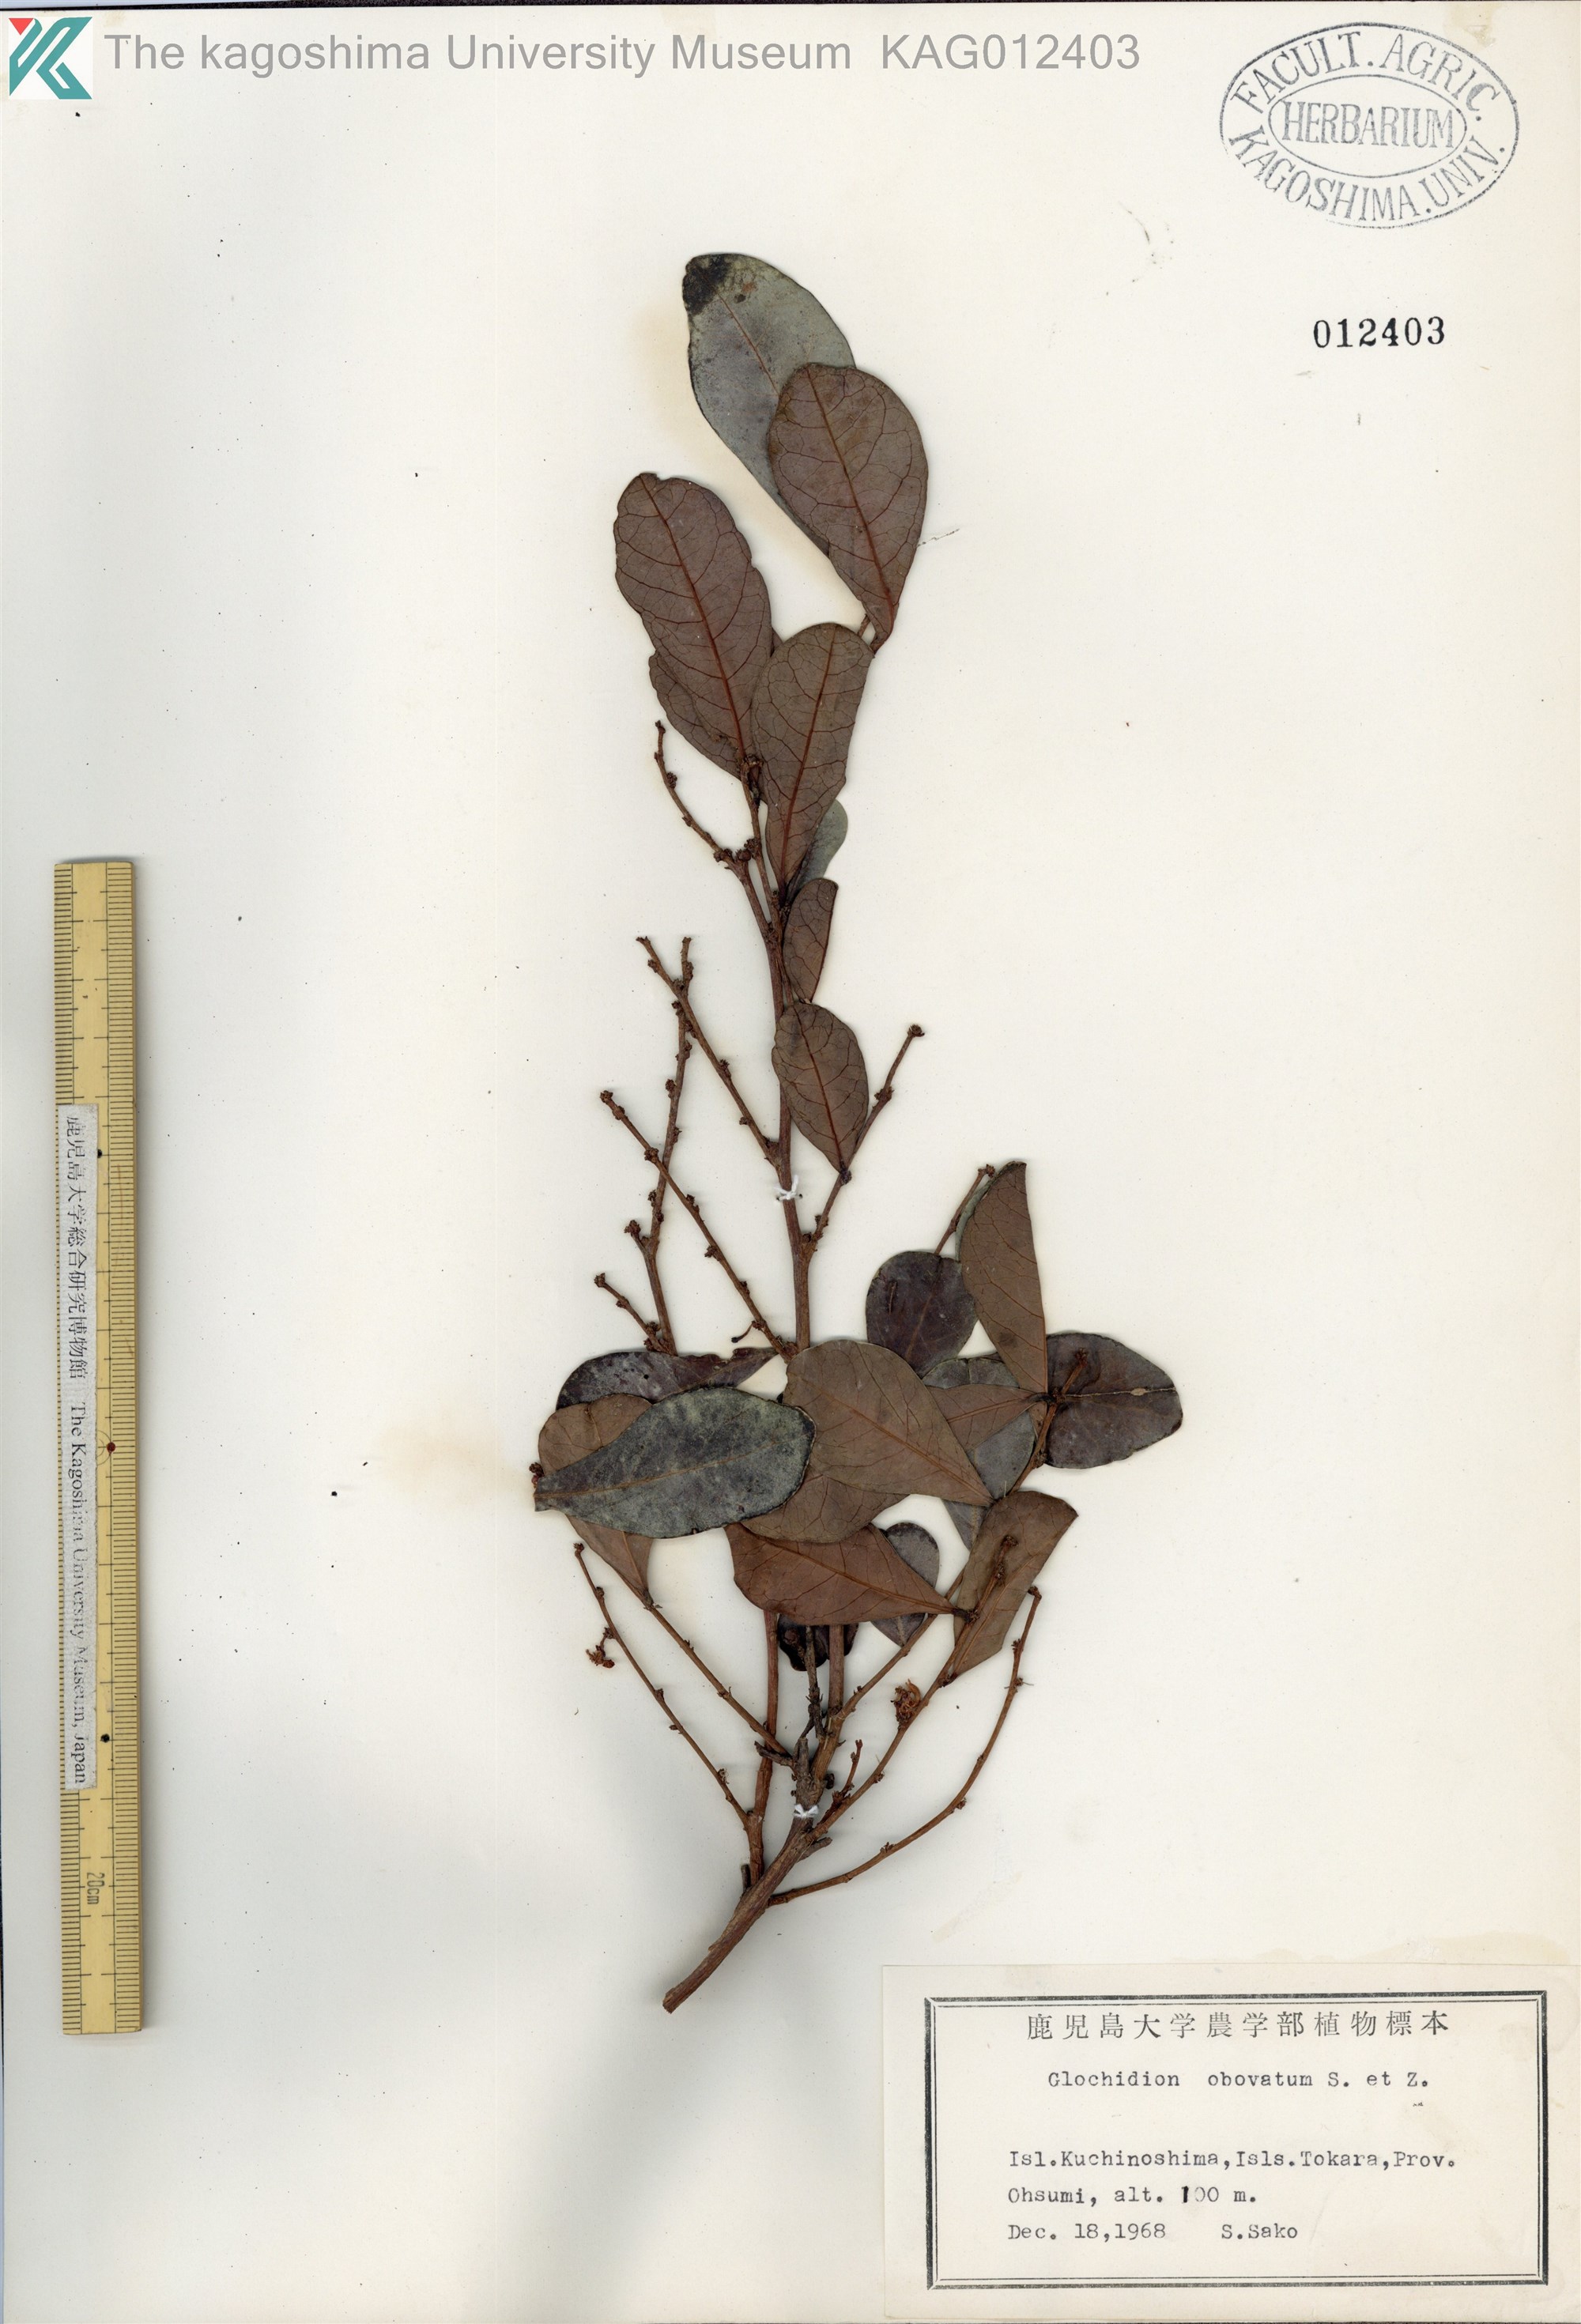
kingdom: Plantae
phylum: Tracheophyta
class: Magnoliopsida
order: Malpighiales
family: Phyllanthaceae
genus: Glochidion
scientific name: Glochidion obovatum
